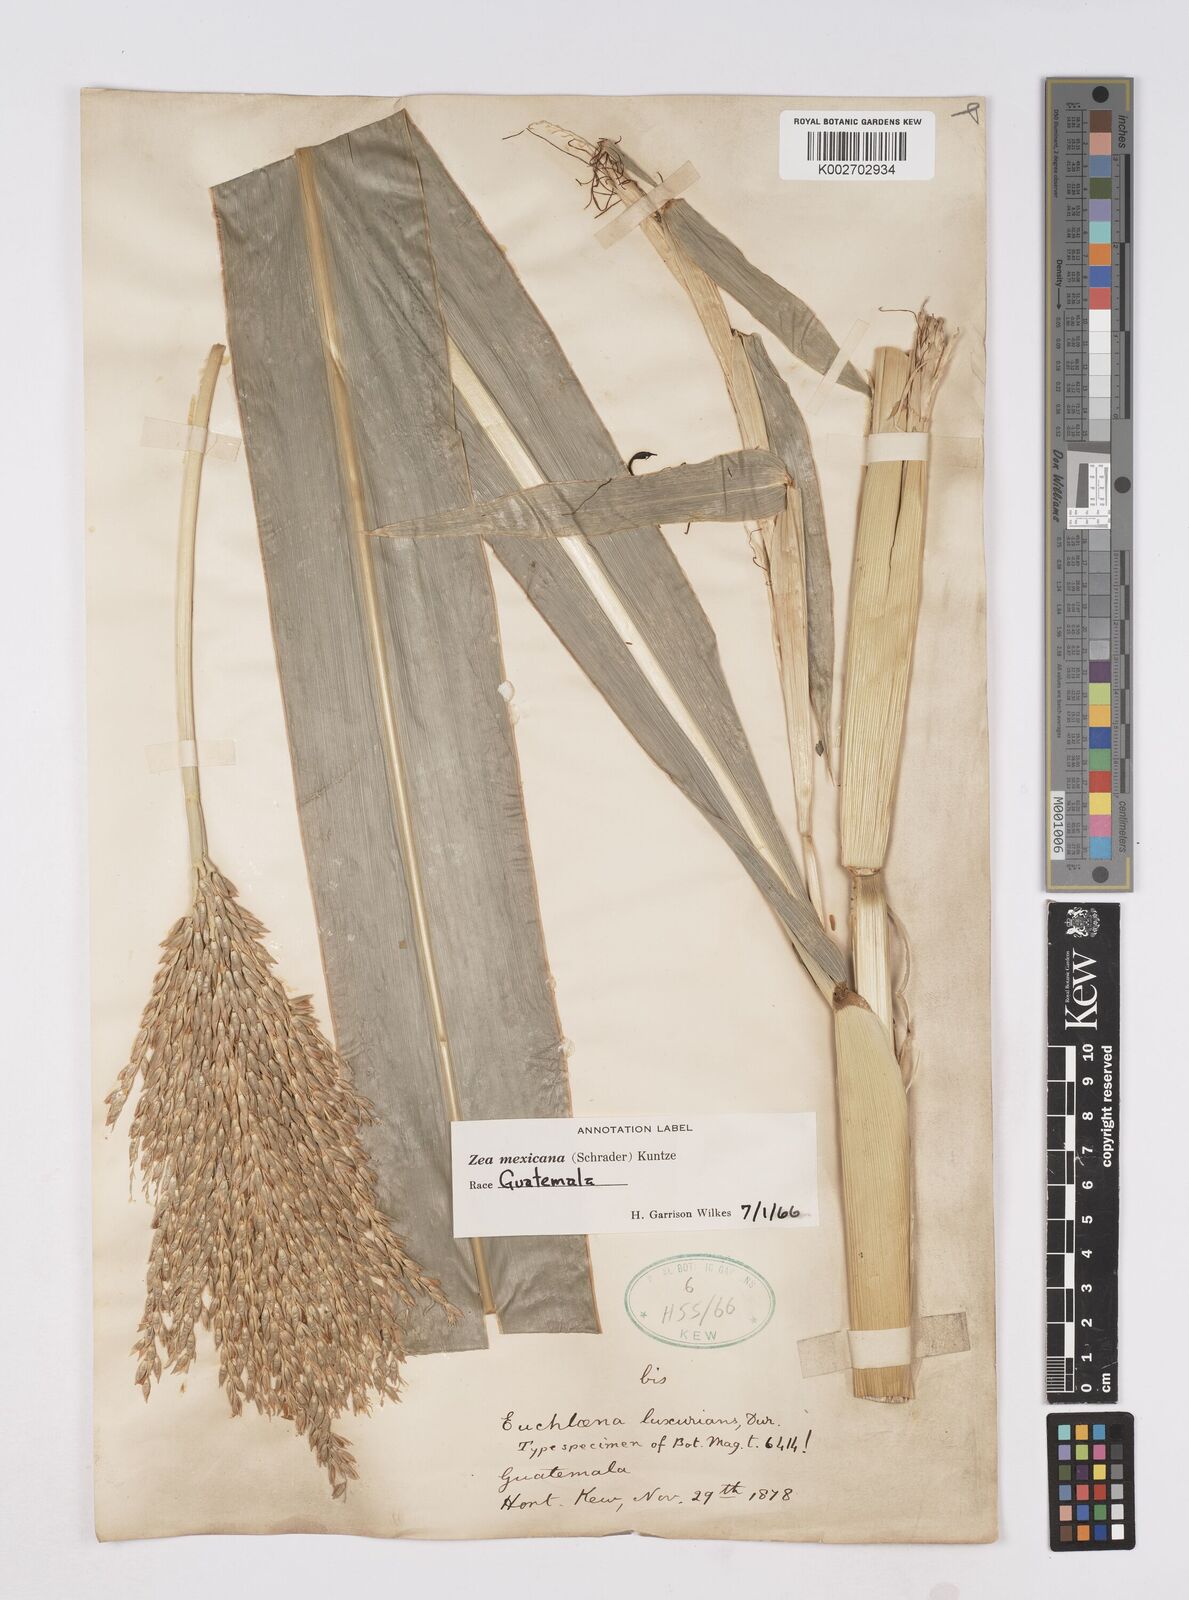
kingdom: Plantae
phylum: Tracheophyta
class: Liliopsida
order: Poales
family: Poaceae
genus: Zea
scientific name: Zea mexicana
